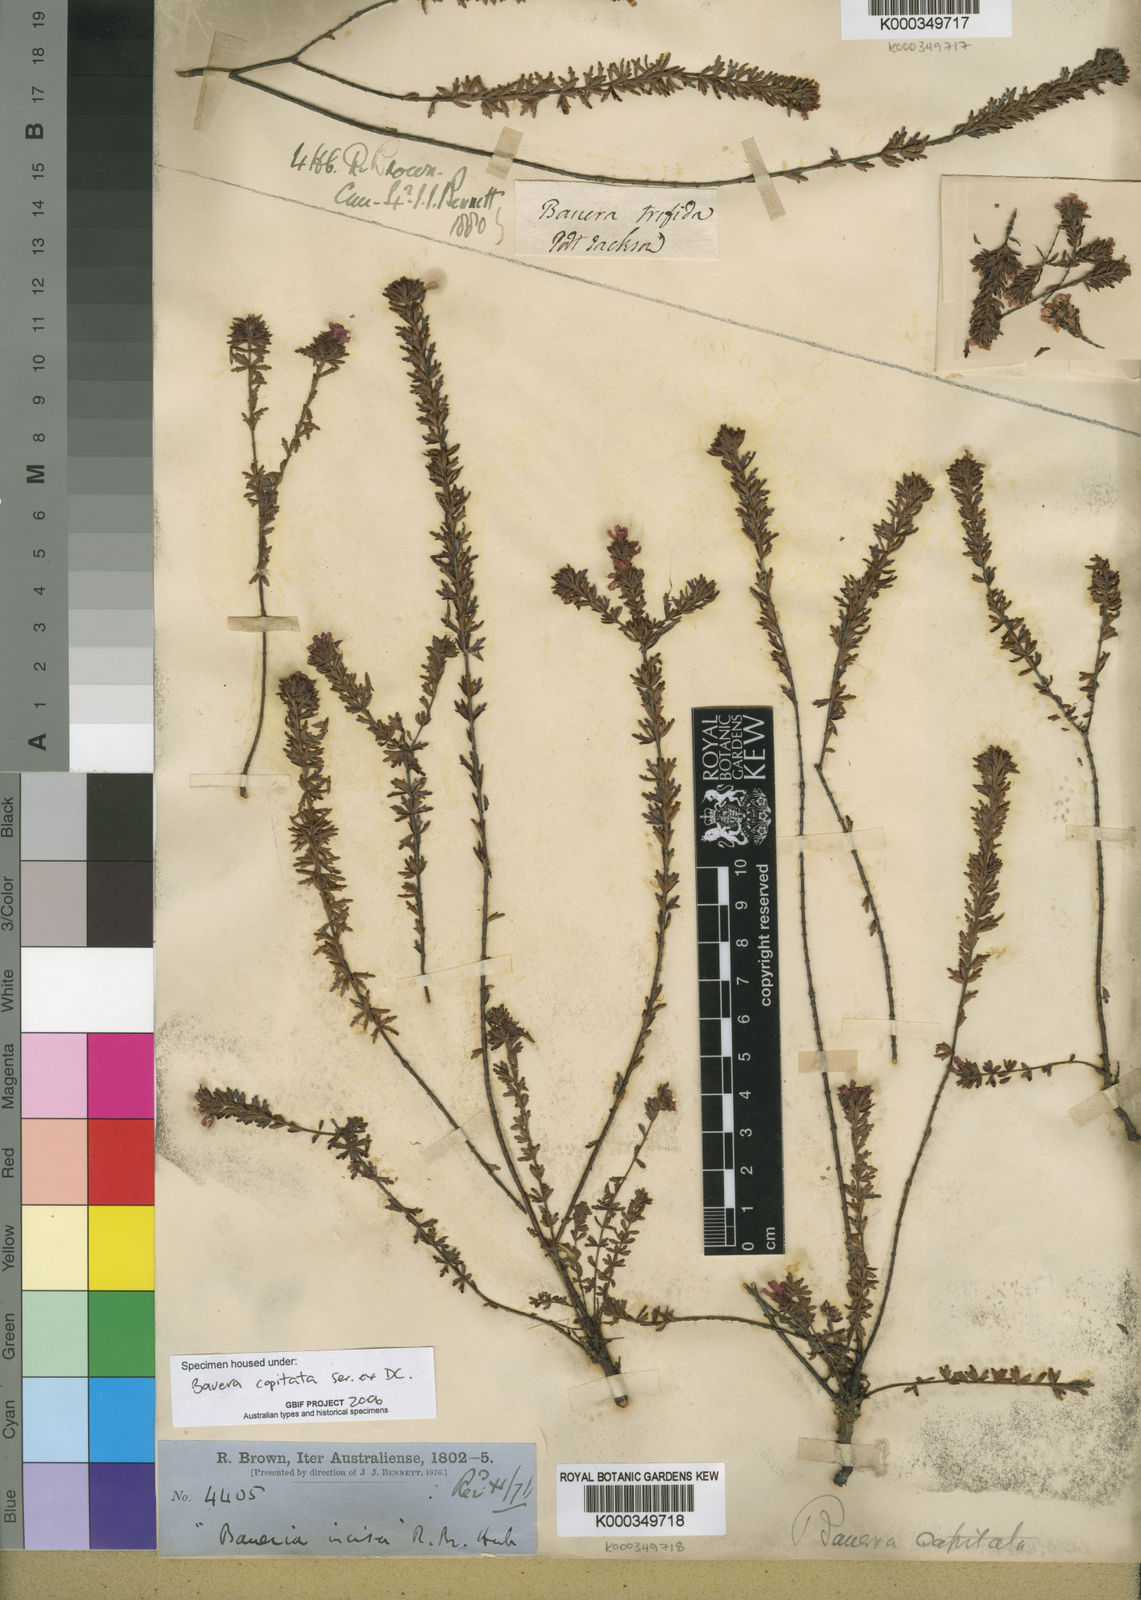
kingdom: Plantae
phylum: Tracheophyta
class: Magnoliopsida
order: Oxalidales
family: Cunoniaceae
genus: Bauera
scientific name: Bauera
